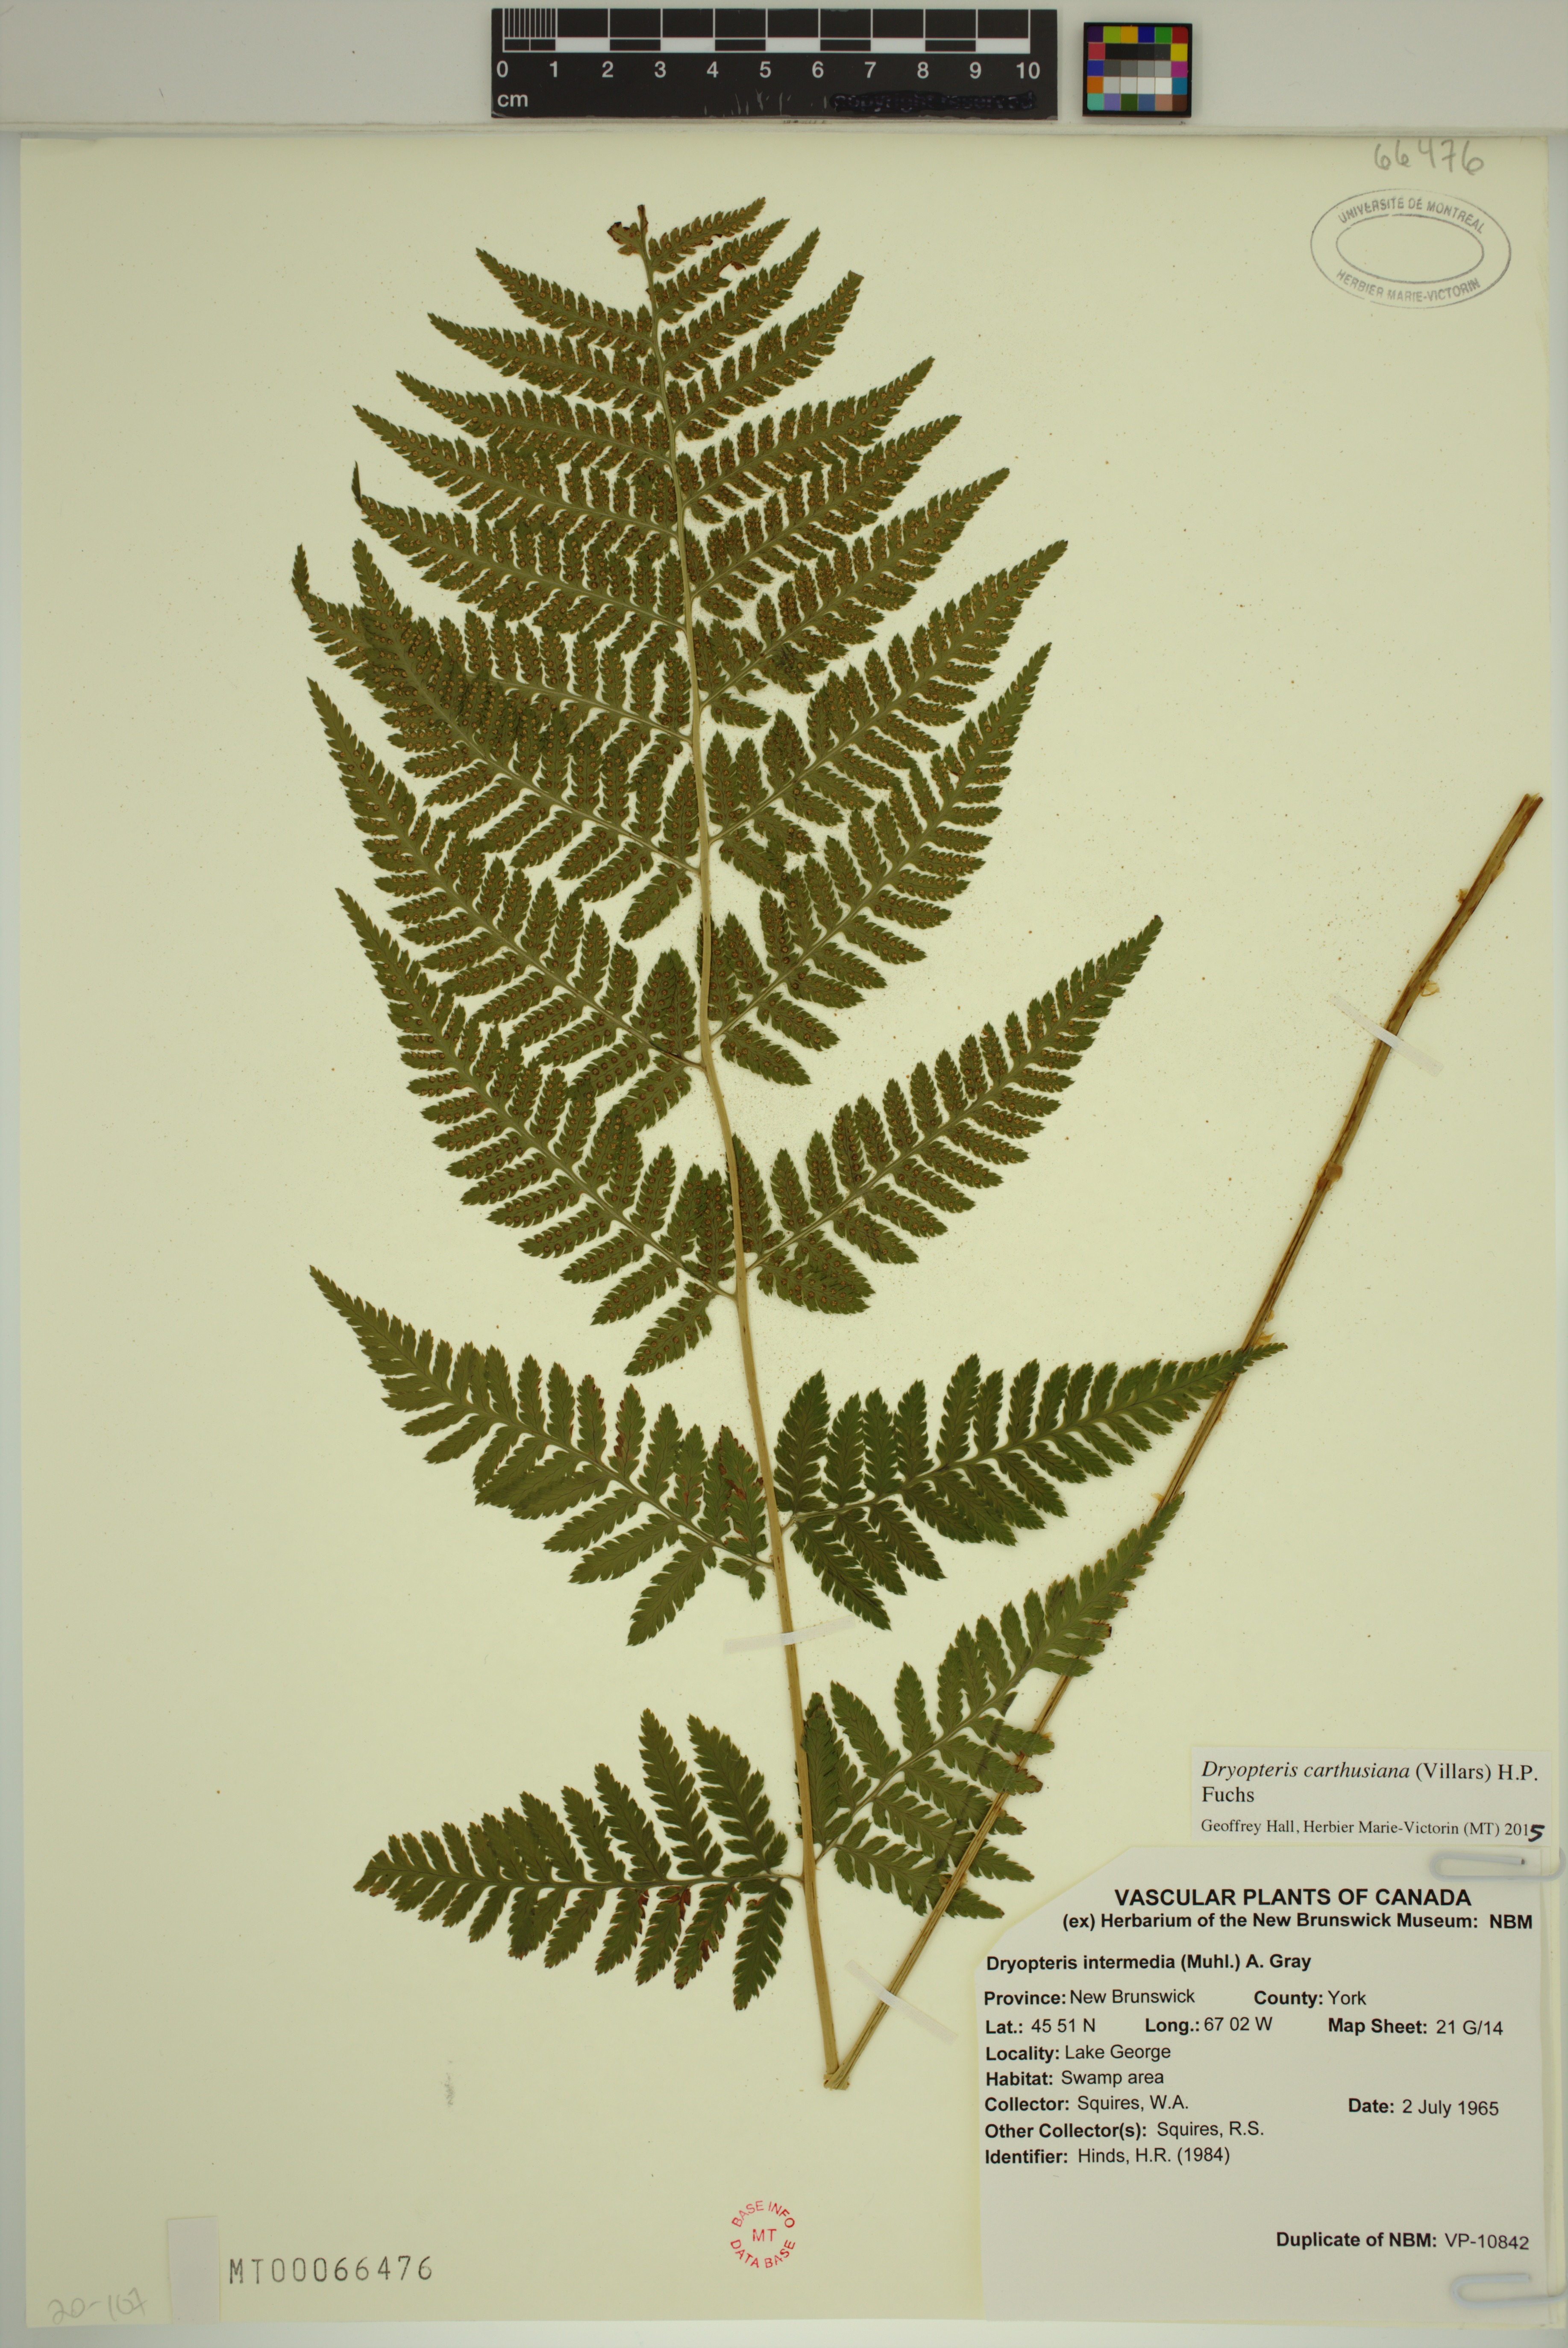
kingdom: Plantae
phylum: Tracheophyta
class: Polypodiopsida
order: Polypodiales
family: Dryopteridaceae
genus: Dryopteris
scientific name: Dryopteris carthusiana
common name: Narrow buckler-fern
